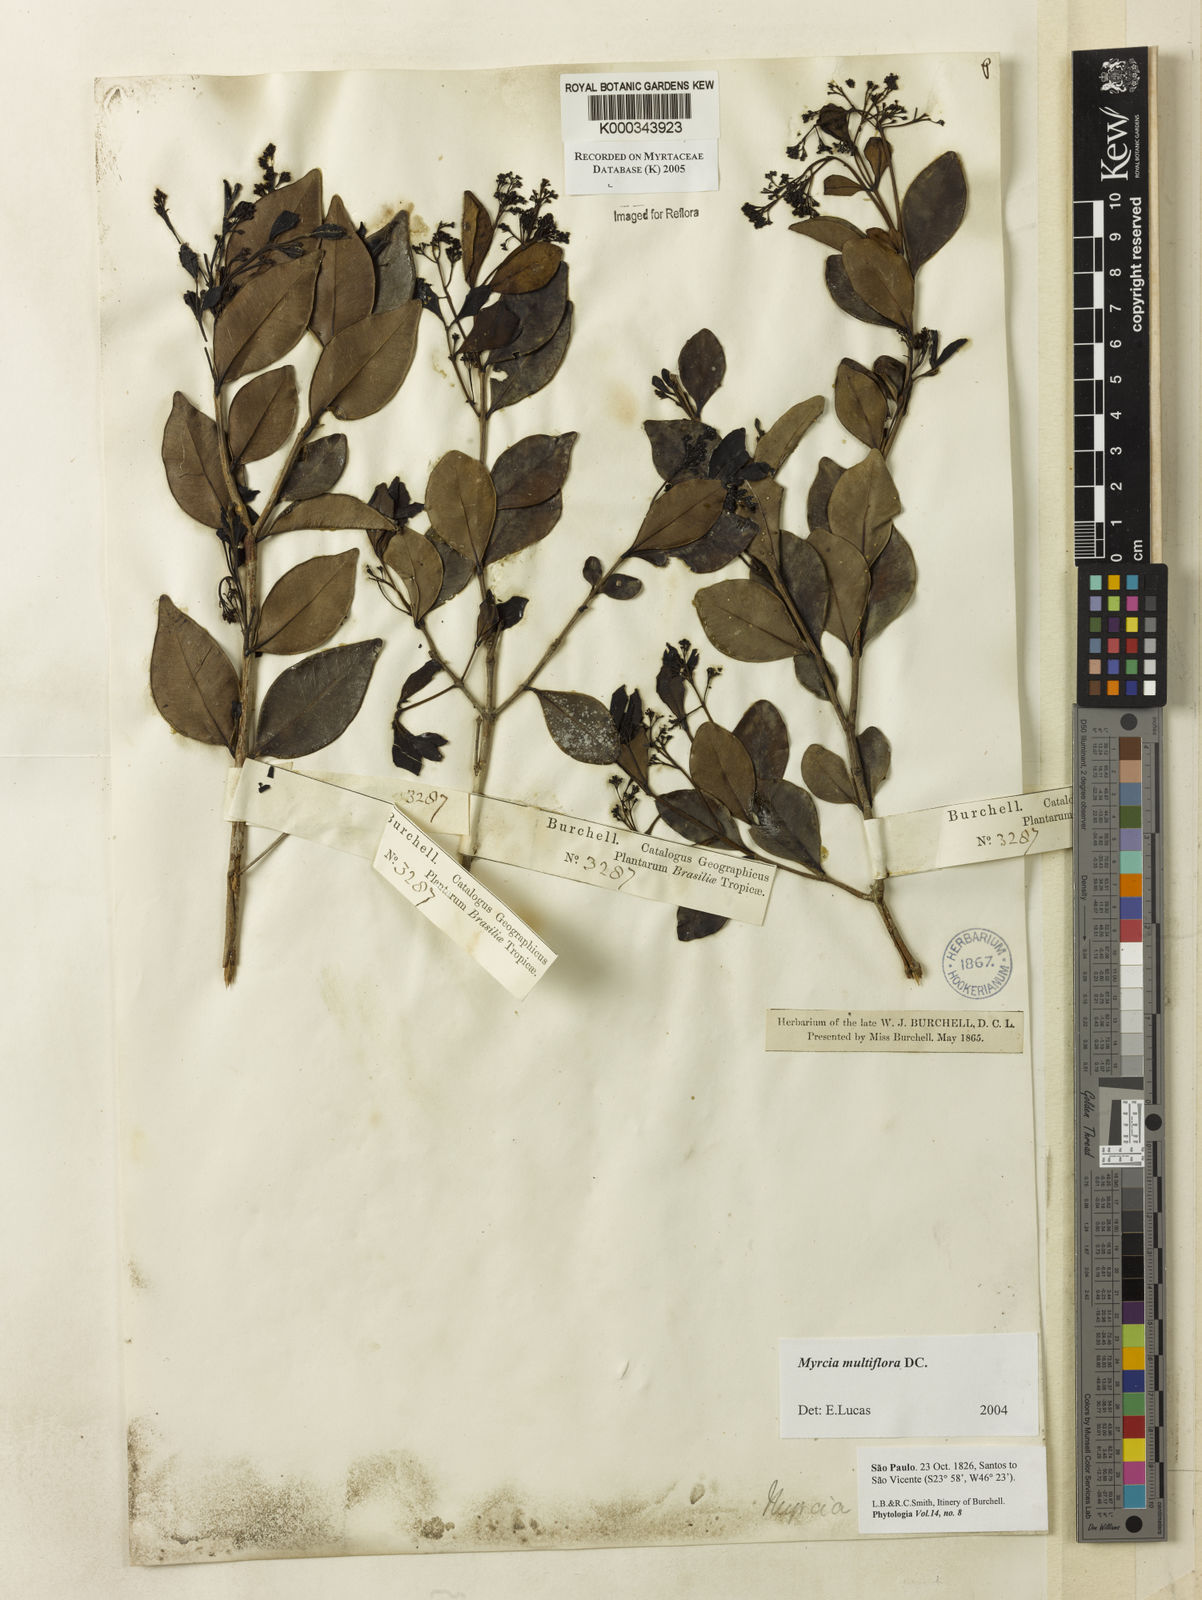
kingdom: Plantae
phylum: Tracheophyta
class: Magnoliopsida
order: Myrtales
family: Myrtaceae
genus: Myrcia
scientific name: Myrcia multiflora
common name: Pedra hume
